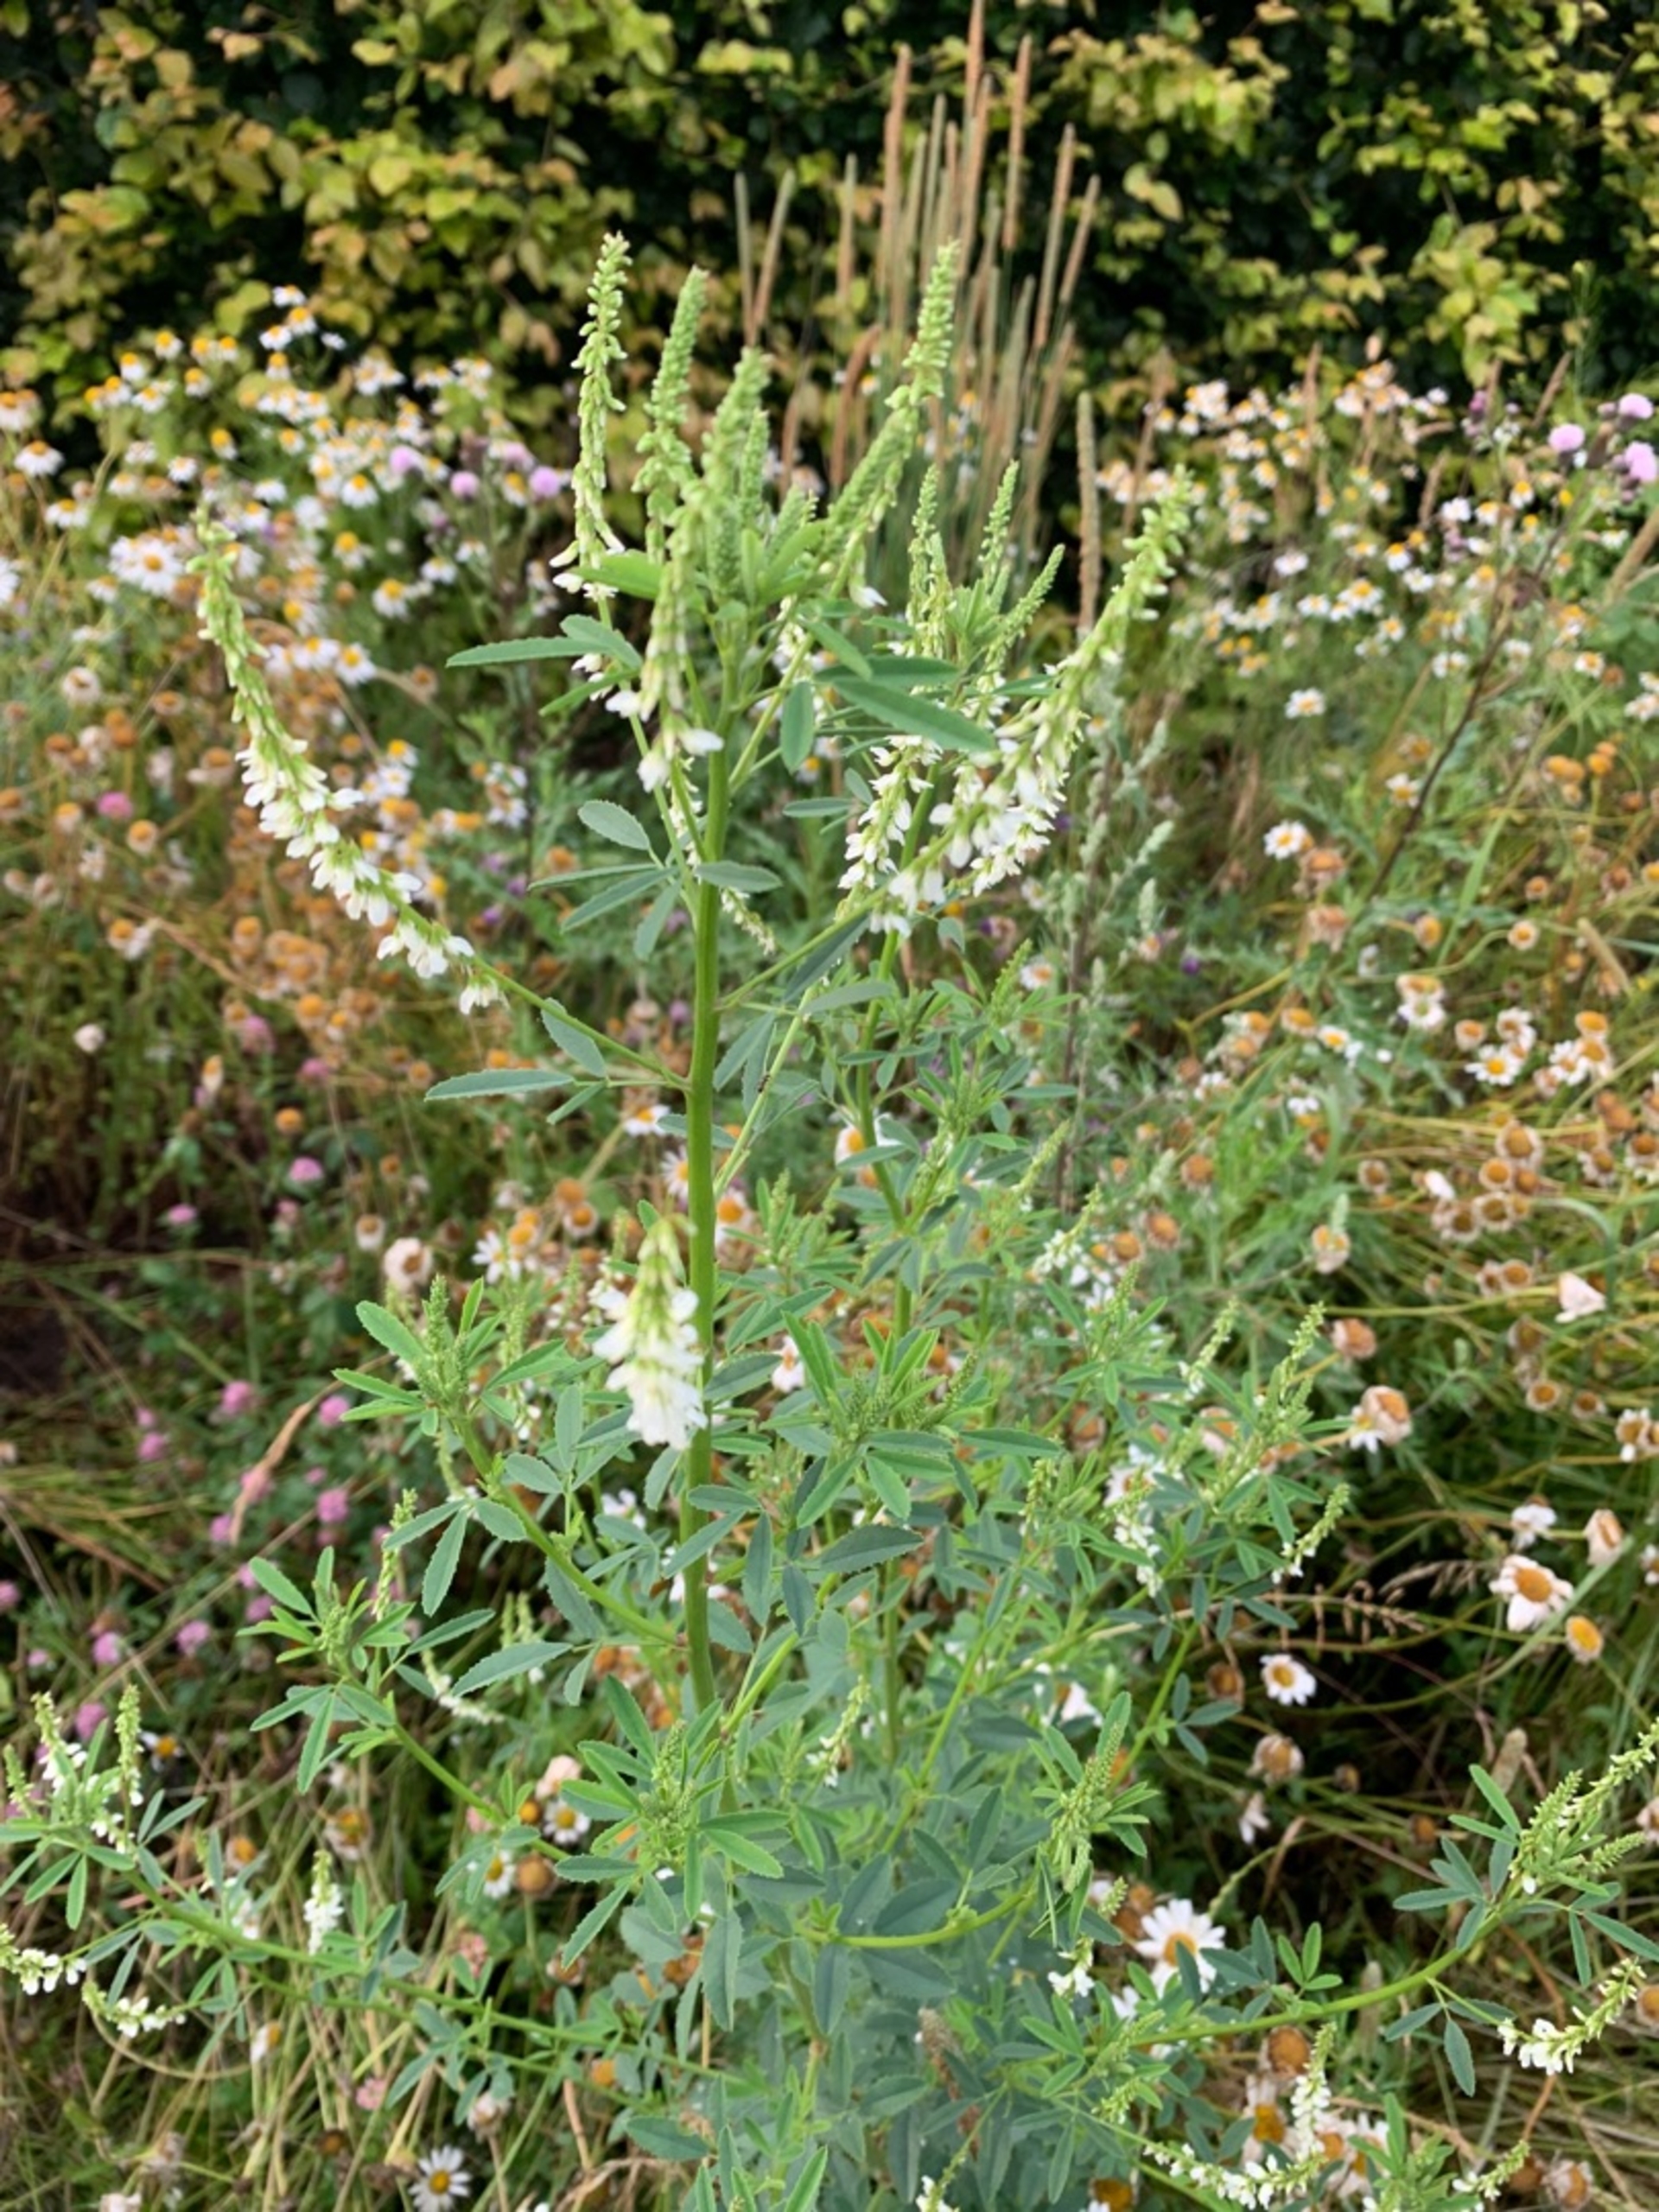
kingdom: Plantae
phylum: Tracheophyta
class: Magnoliopsida
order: Fabales
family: Fabaceae
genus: Melilotus
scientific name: Melilotus albus
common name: Hvid stenkløver
